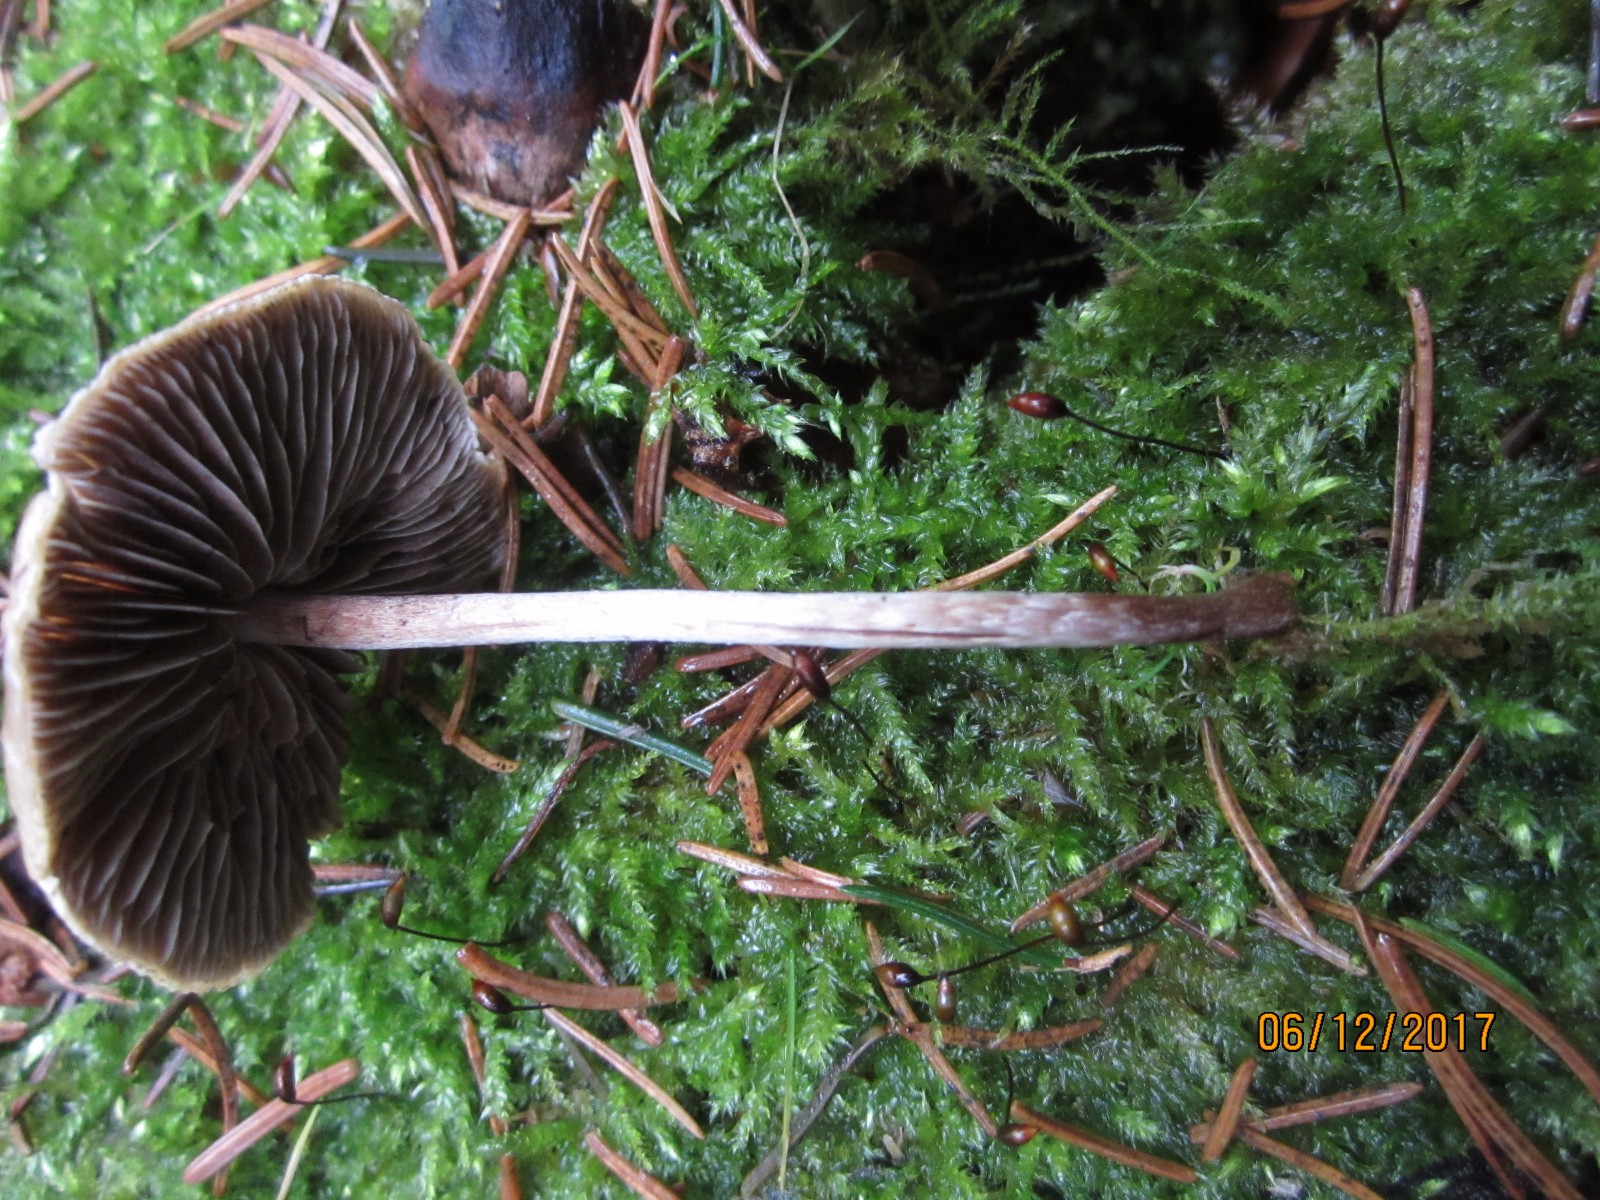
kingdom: Fungi
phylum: Basidiomycota
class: Agaricomycetes
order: Agaricales
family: Strophariaceae
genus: Hypholoma
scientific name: Hypholoma marginatum
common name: enlig svovlhat
